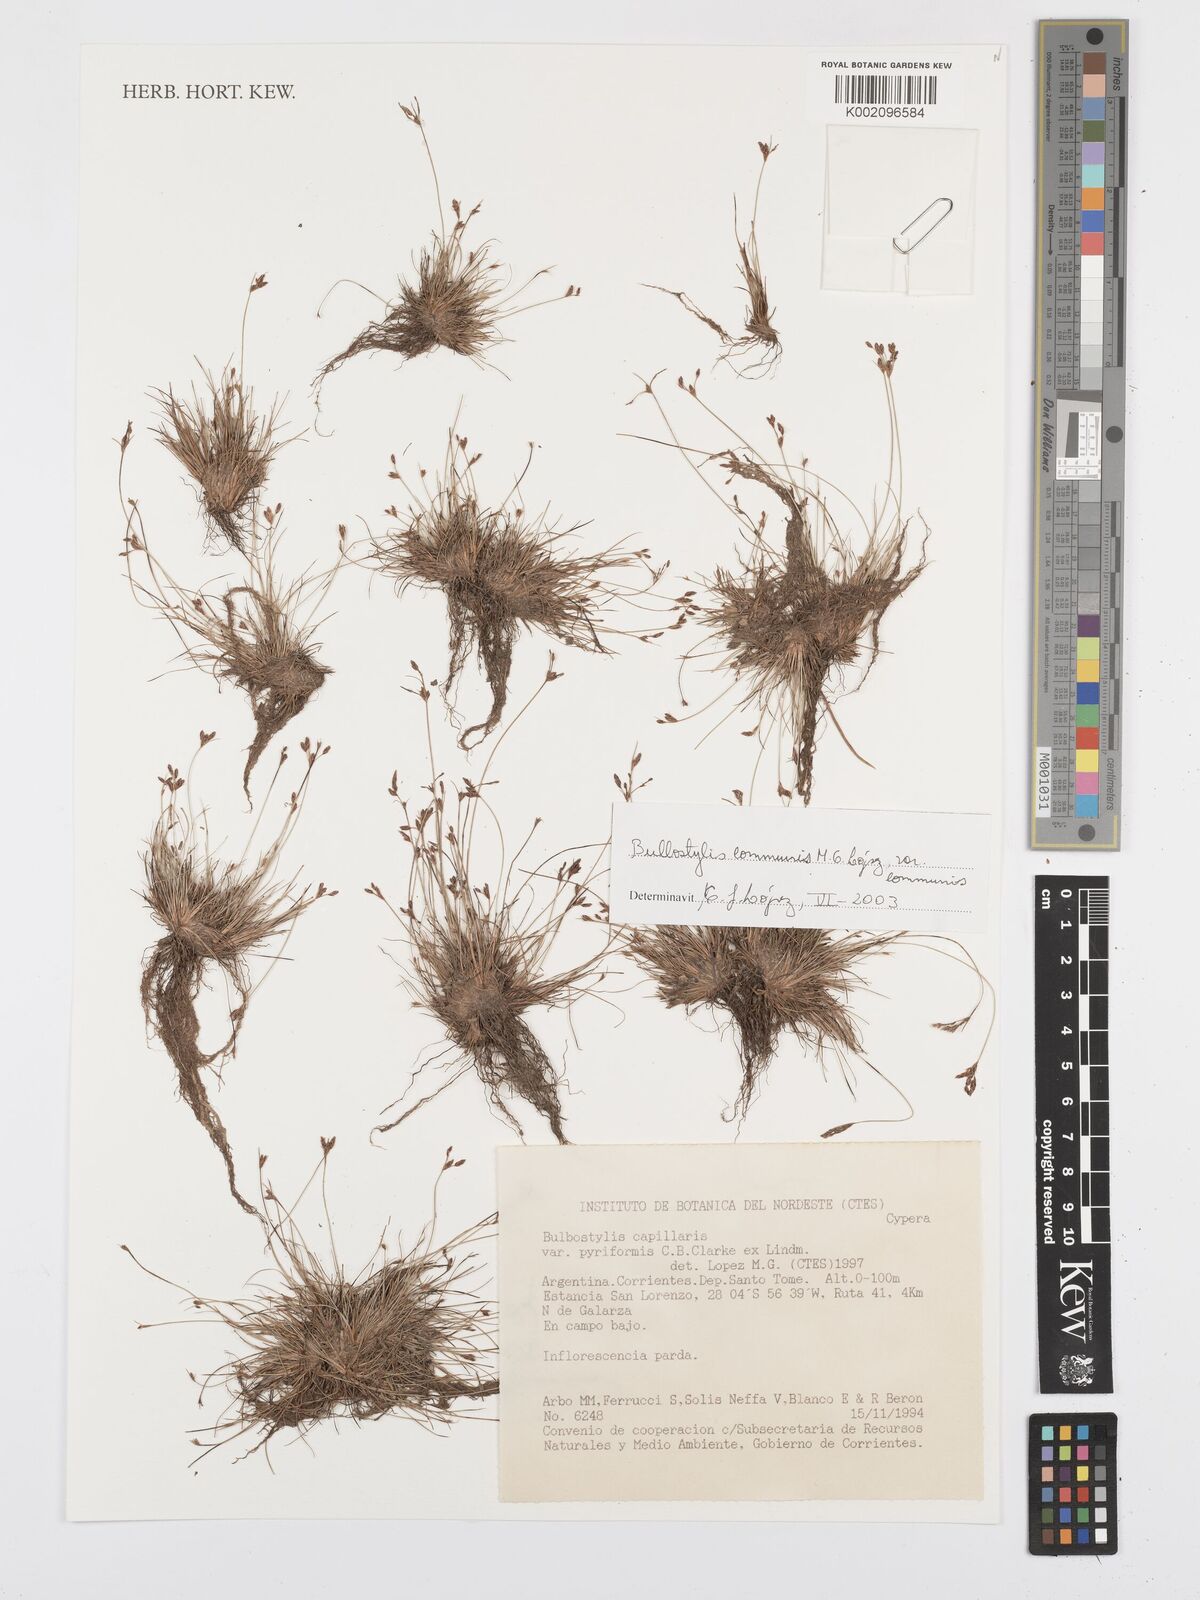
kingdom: Plantae
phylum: Tracheophyta
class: Liliopsida
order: Poales
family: Cyperaceae
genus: Bulbostylis
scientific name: Bulbostylis communis
